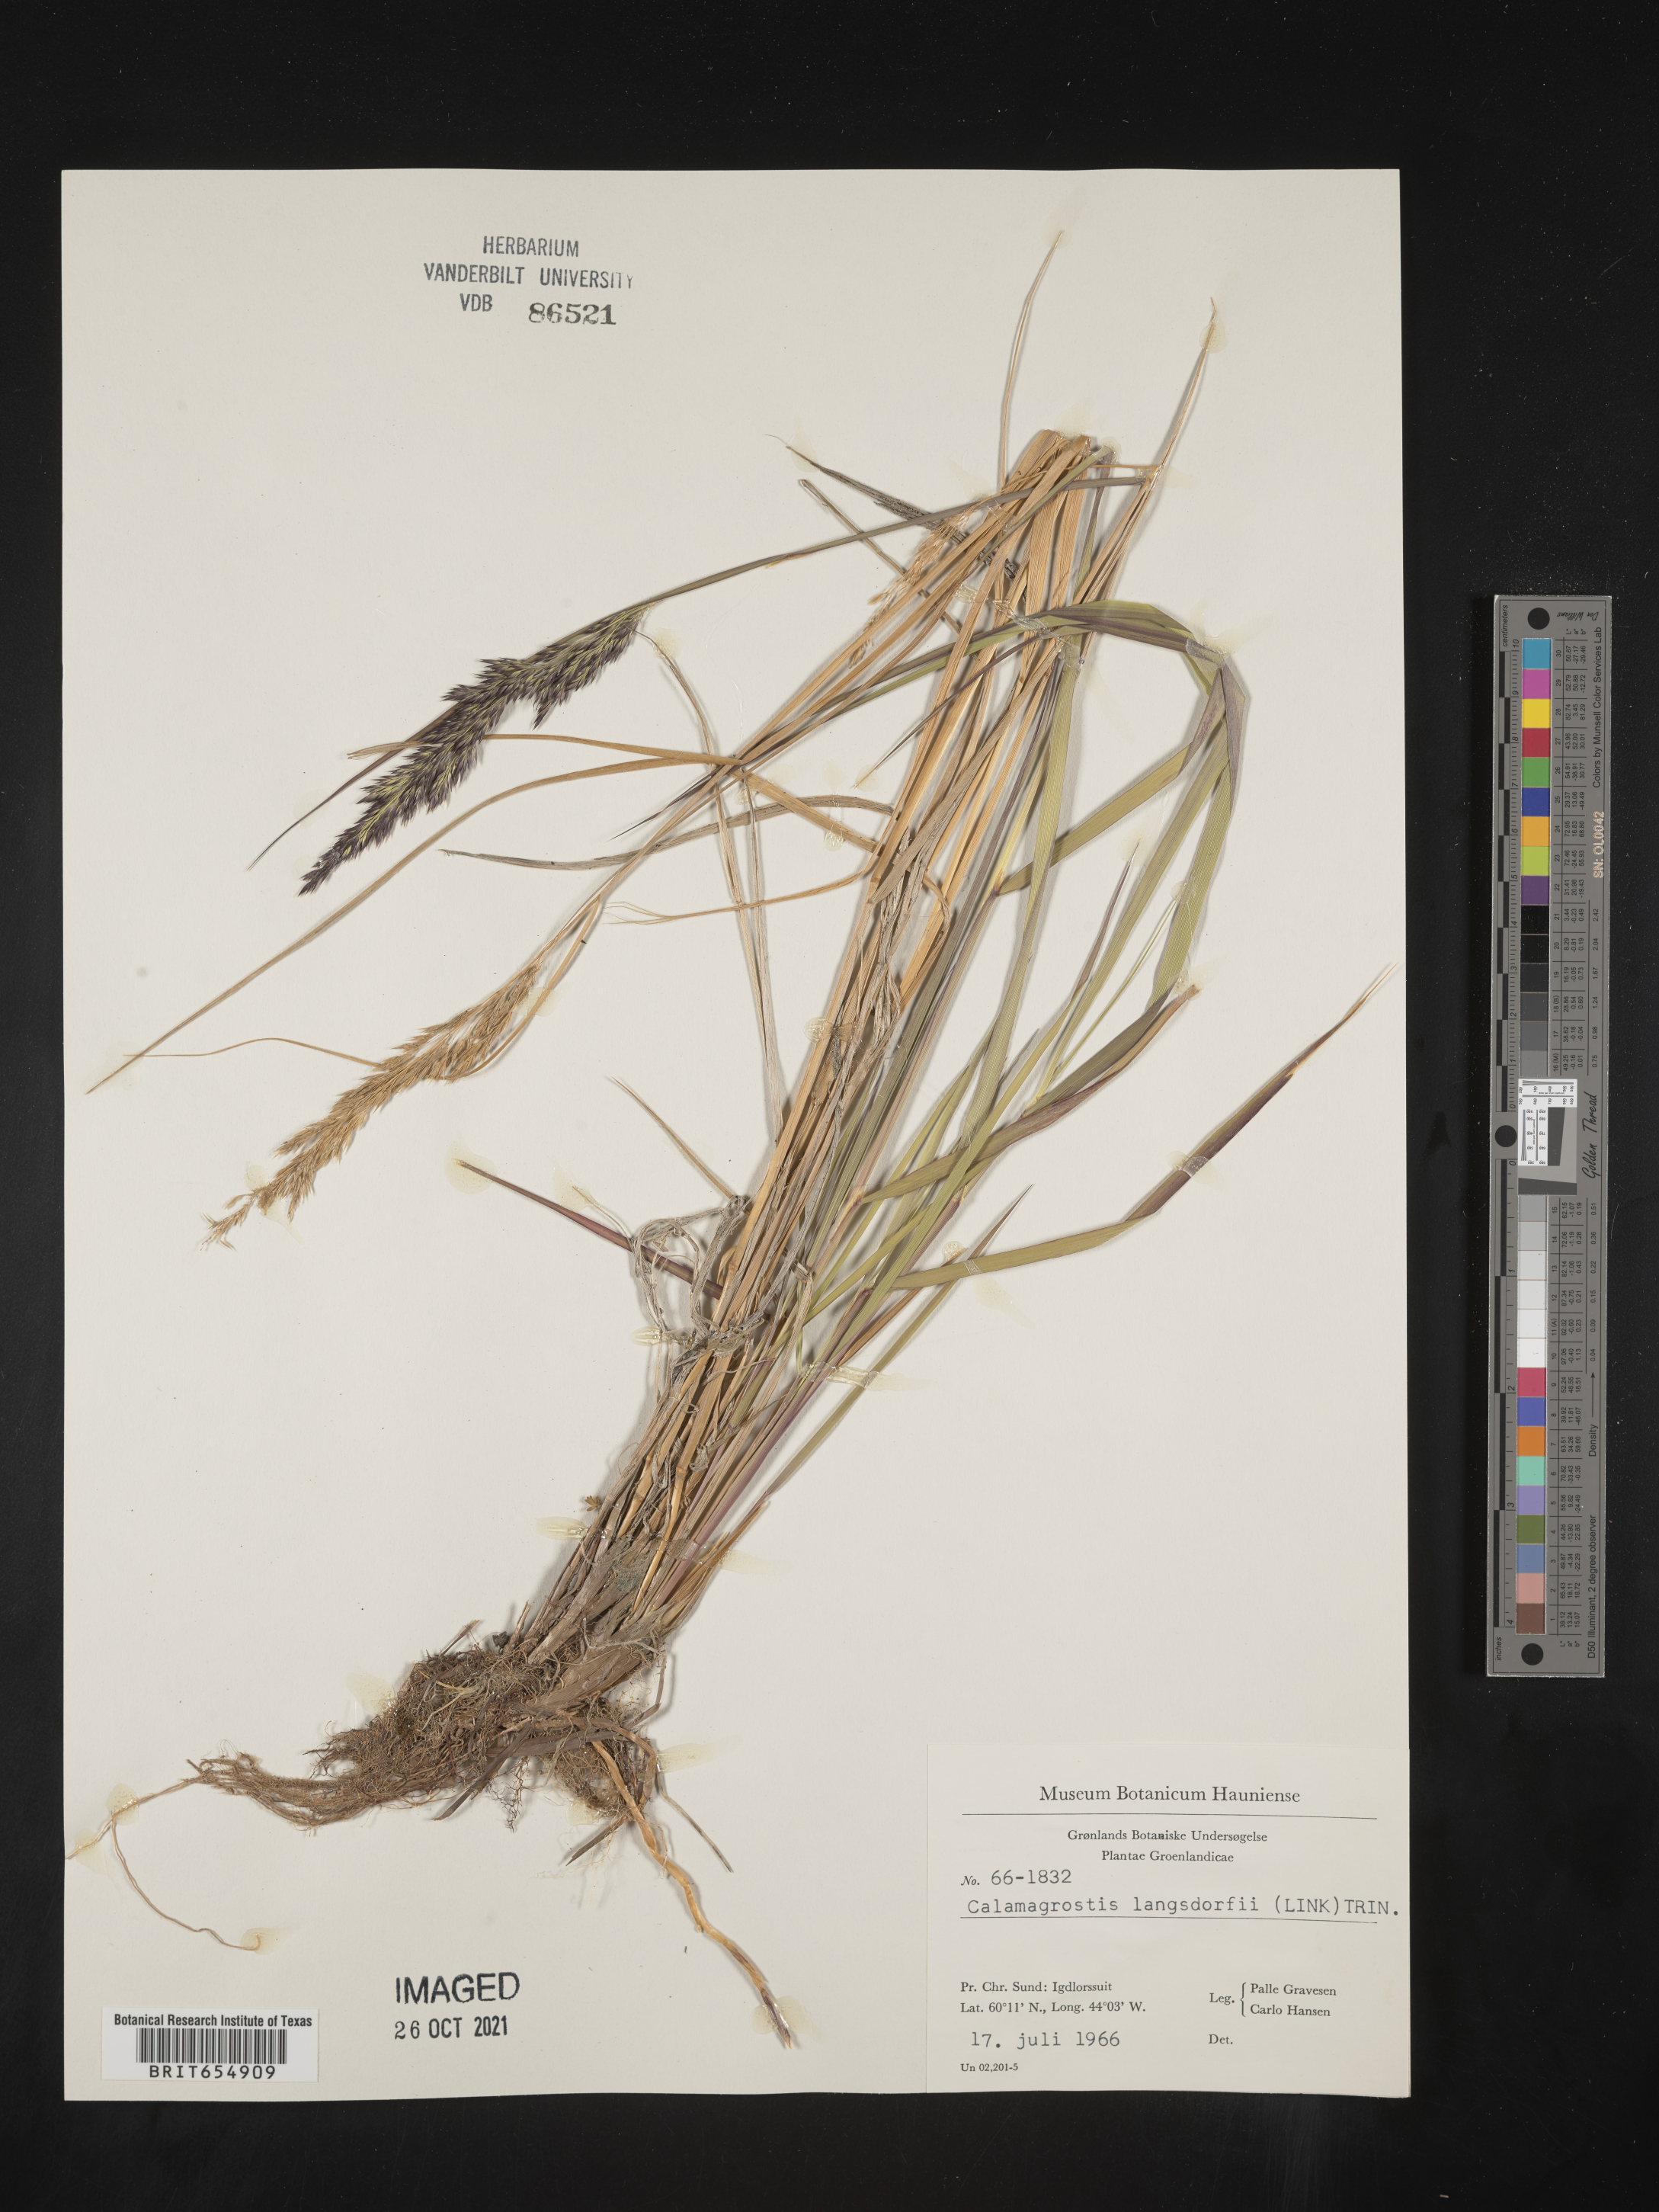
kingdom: Plantae
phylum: Tracheophyta
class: Liliopsida
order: Poales
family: Poaceae
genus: Calamagrostis
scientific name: Calamagrostis
